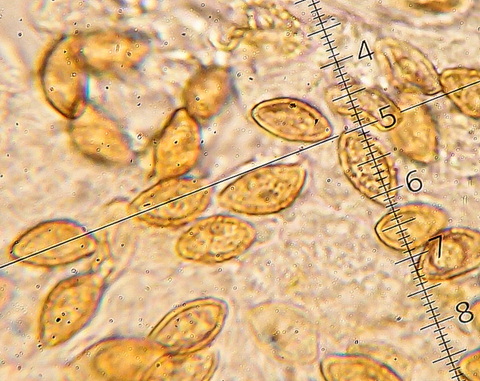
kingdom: Fungi
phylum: Basidiomycota
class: Agaricomycetes
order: Agaricales
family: Cortinariaceae
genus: Cortinarius
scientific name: Cortinarius largus
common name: violetrandet slørhat
